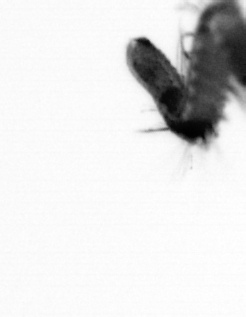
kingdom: Animalia
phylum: Annelida
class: Polychaeta
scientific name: Polychaeta
